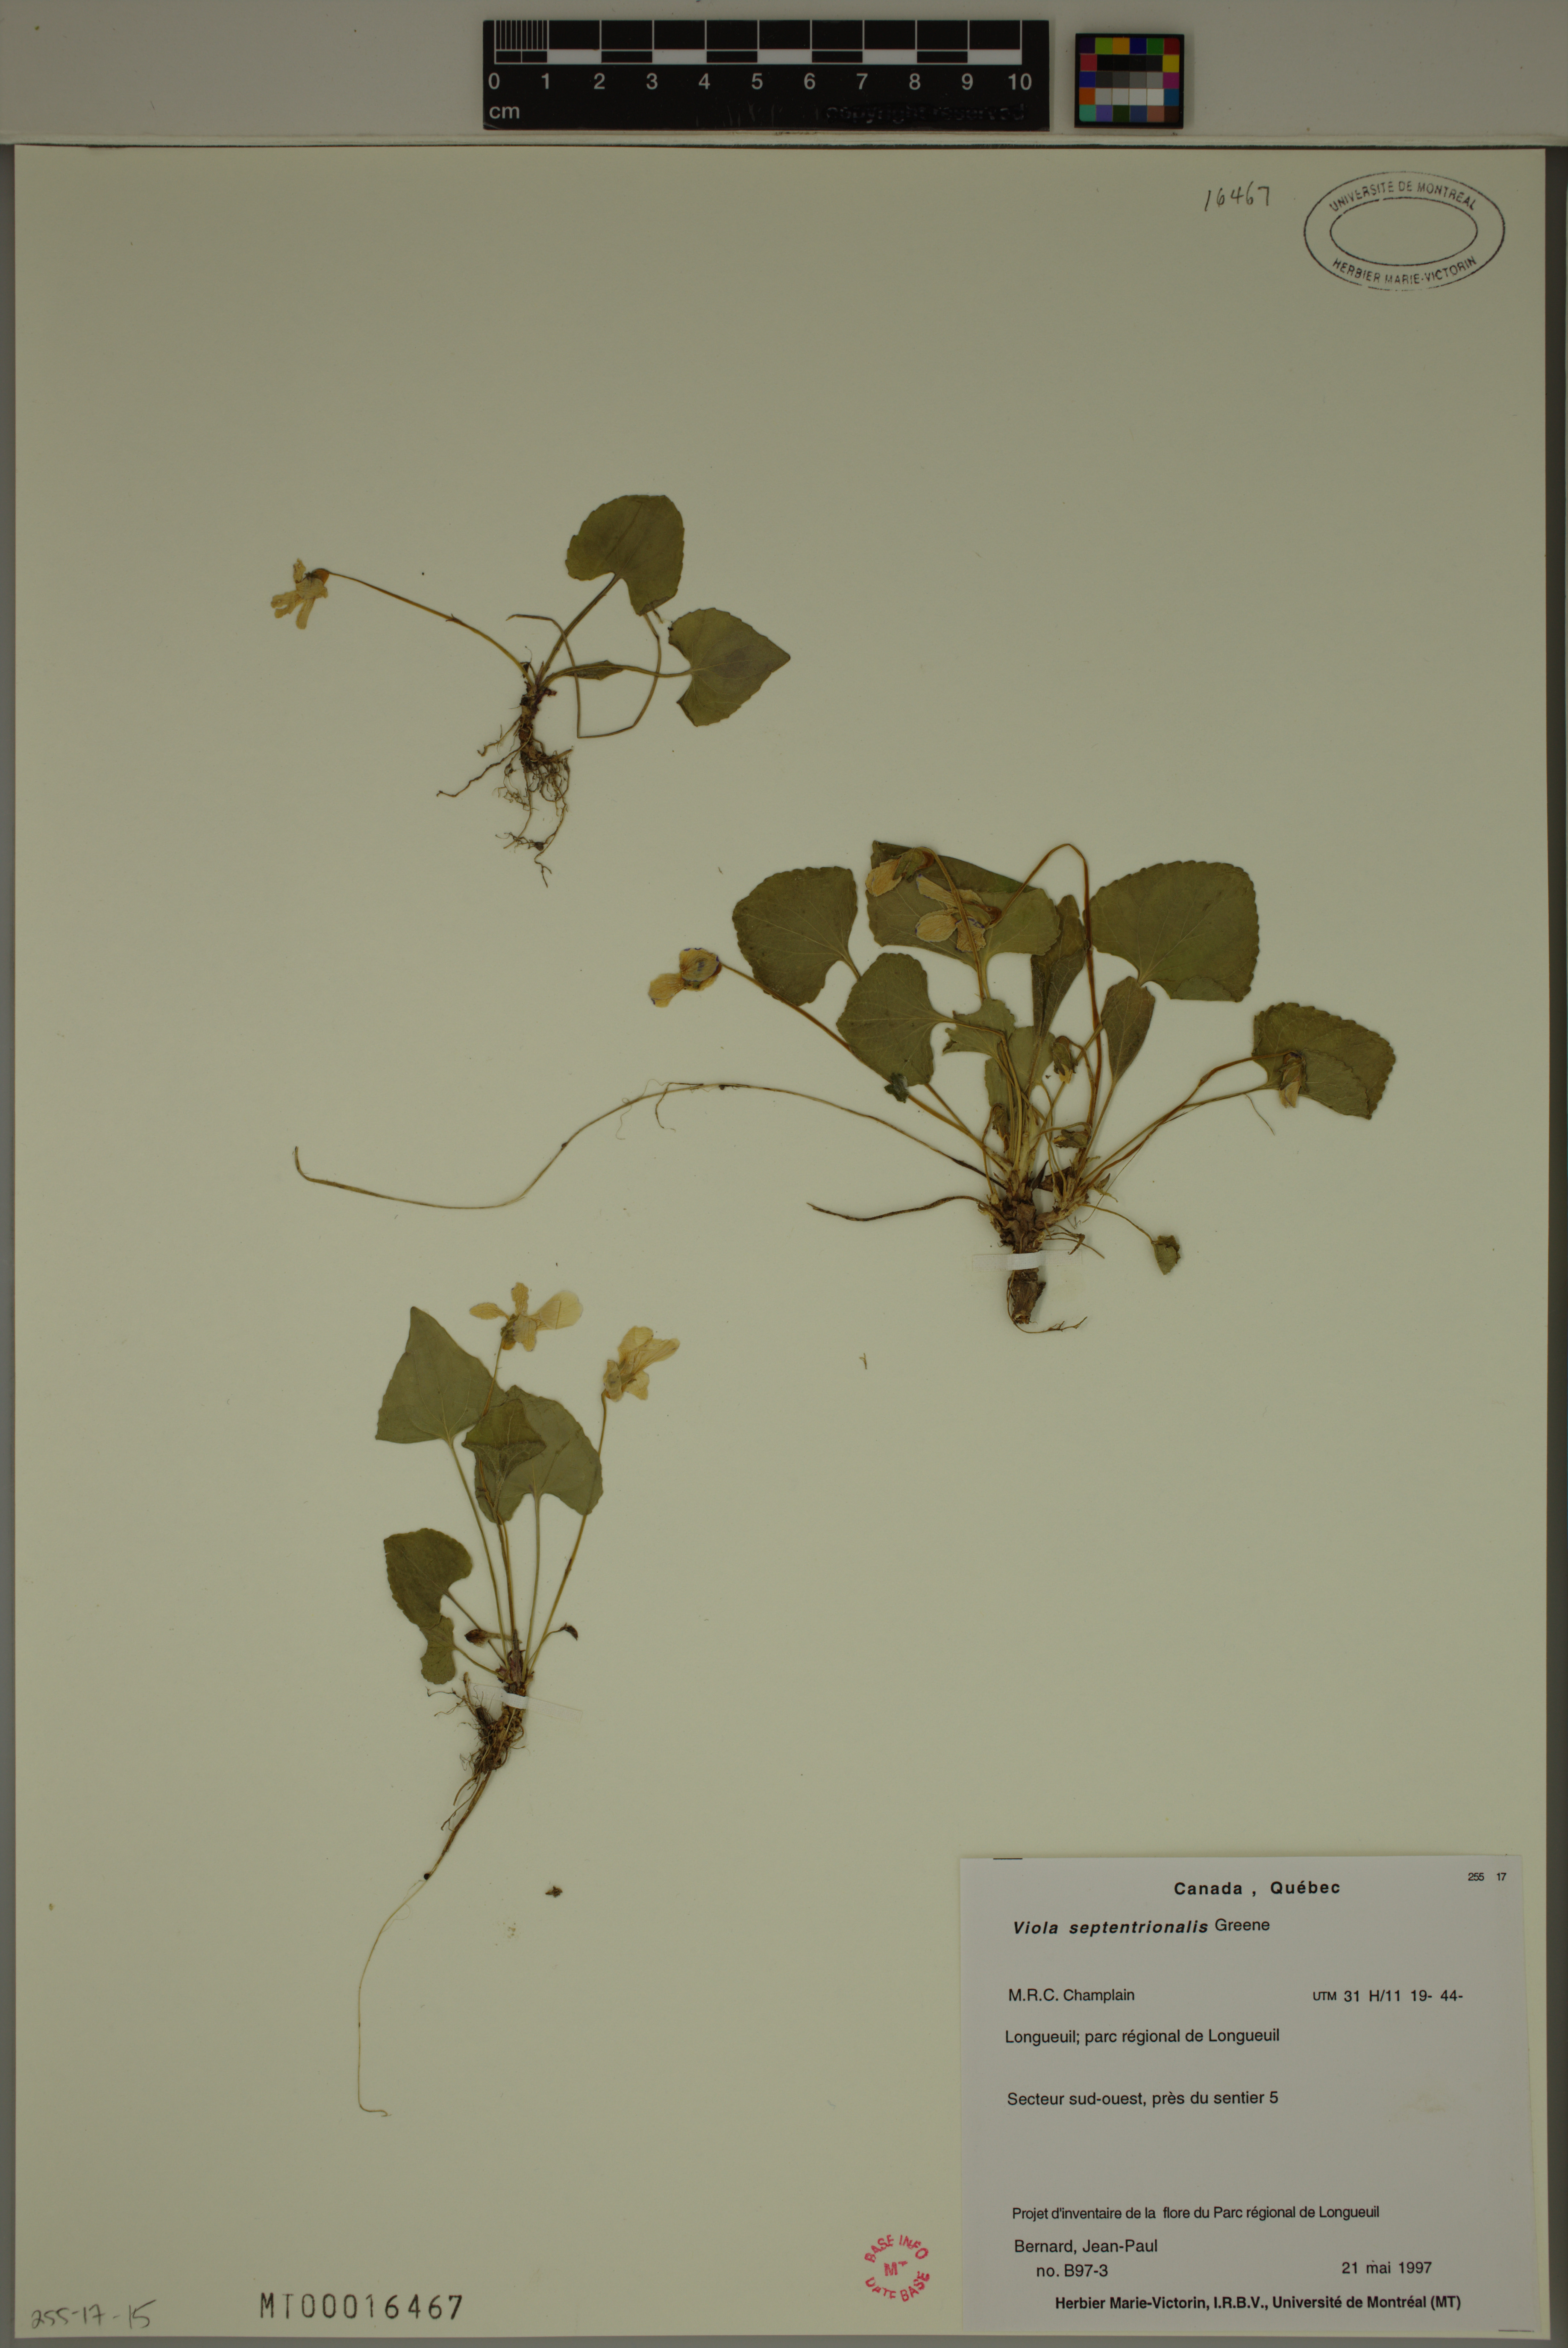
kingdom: Plantae
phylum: Tracheophyta
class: Magnoliopsida
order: Malpighiales
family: Violaceae
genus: Viola
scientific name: Viola sororia
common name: Dooryard violet
